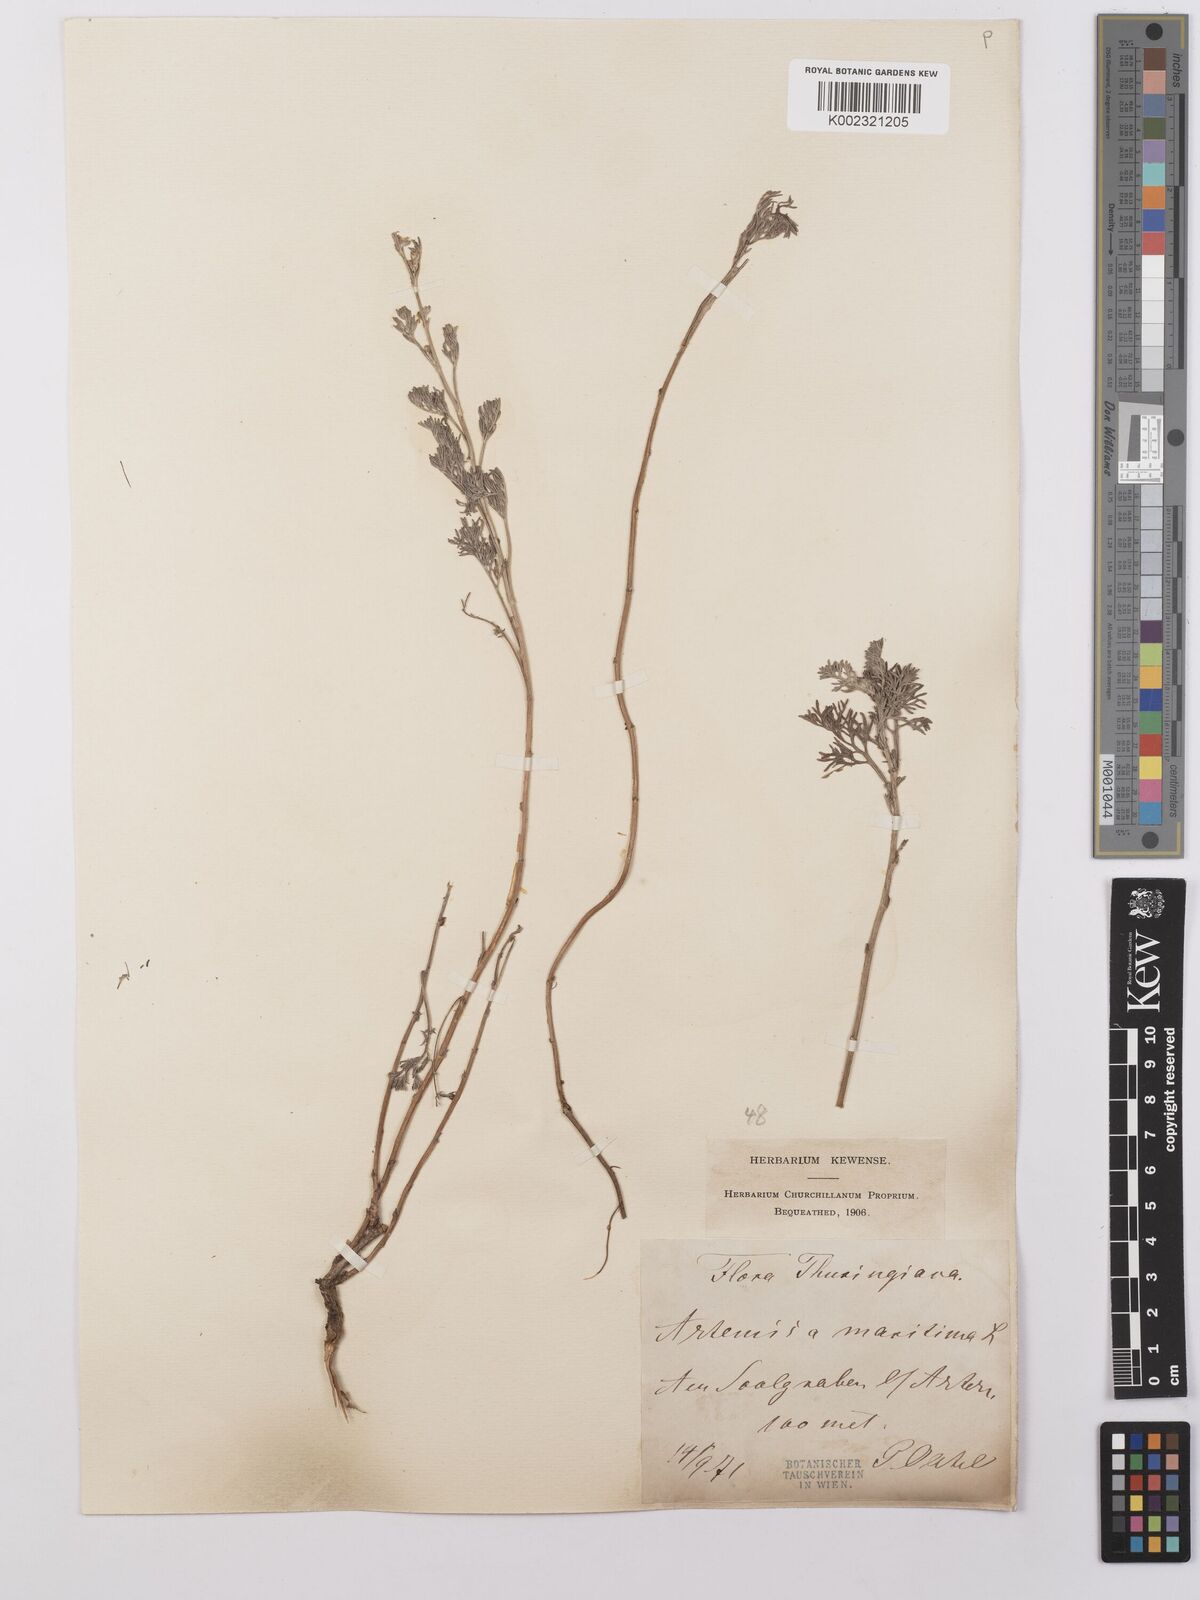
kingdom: Plantae
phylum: Tracheophyta
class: Magnoliopsida
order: Asterales
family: Asteraceae
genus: Artemisia
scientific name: Artemisia maritima
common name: Wormseed
